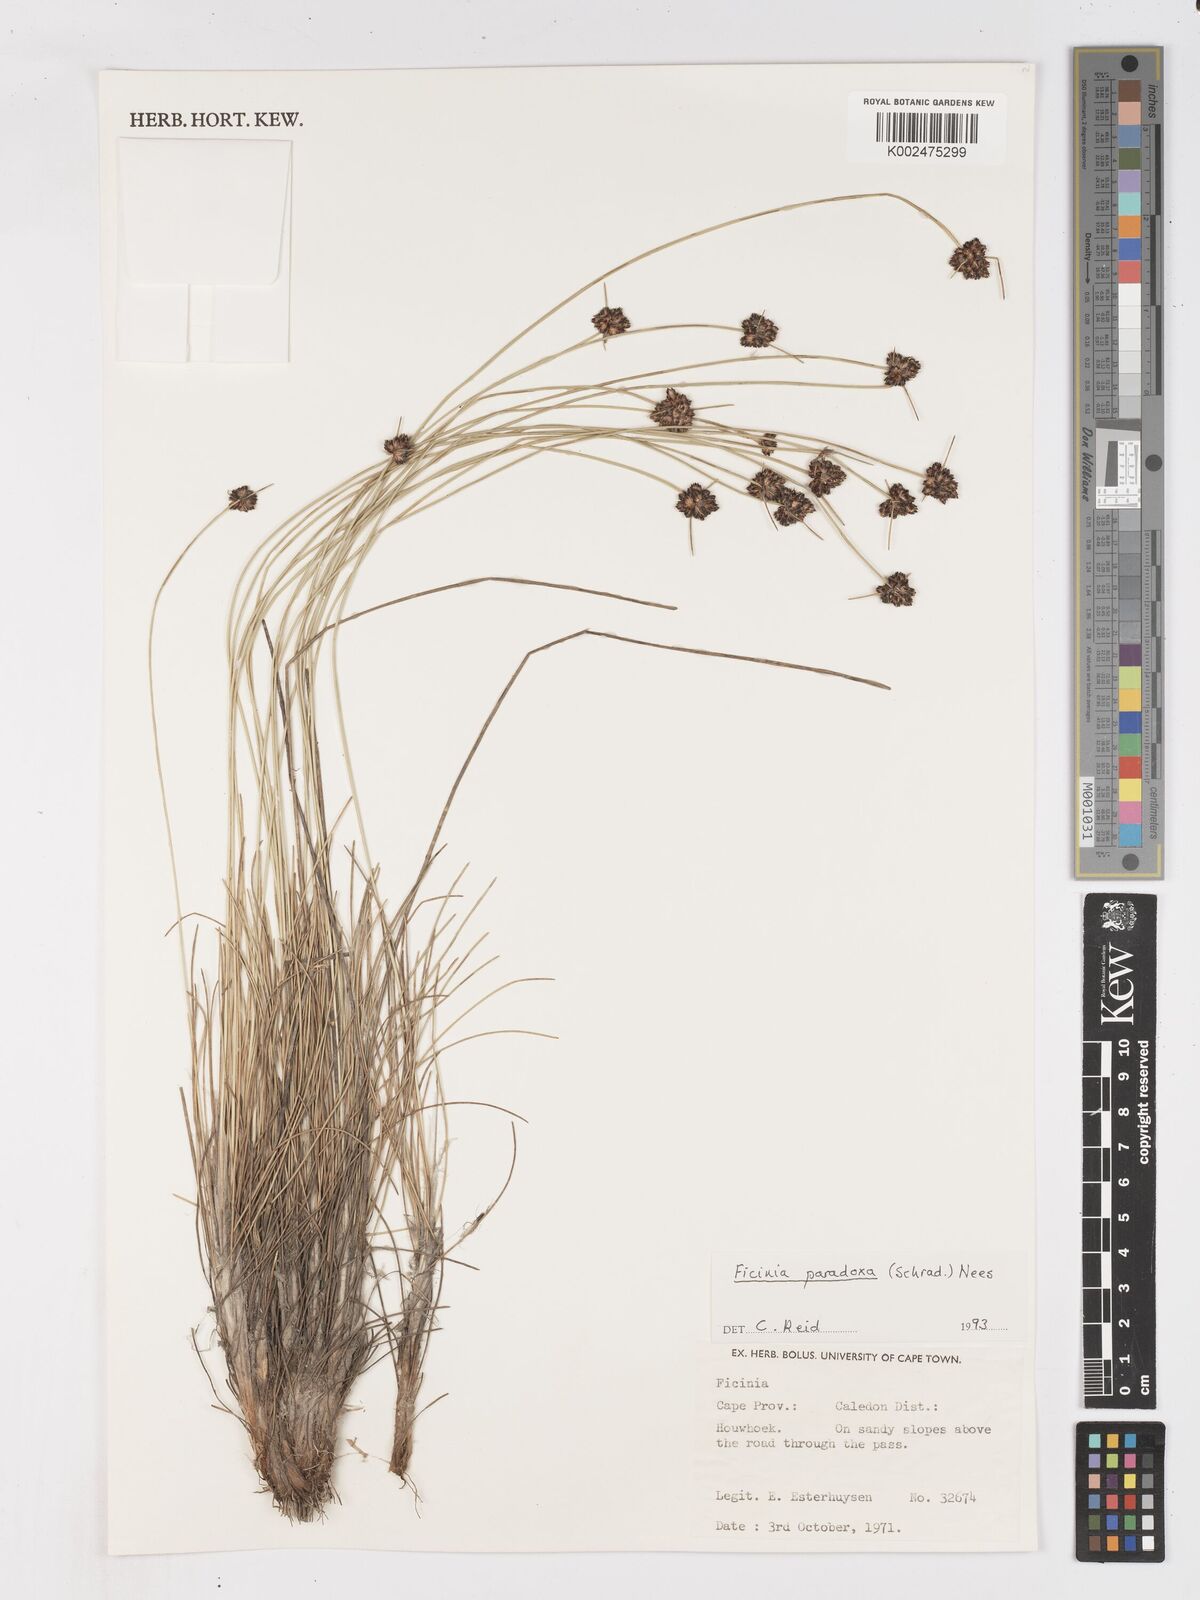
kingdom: Plantae
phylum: Tracheophyta
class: Liliopsida
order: Poales
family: Cyperaceae
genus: Ficinia
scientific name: Ficinia paradoxa
